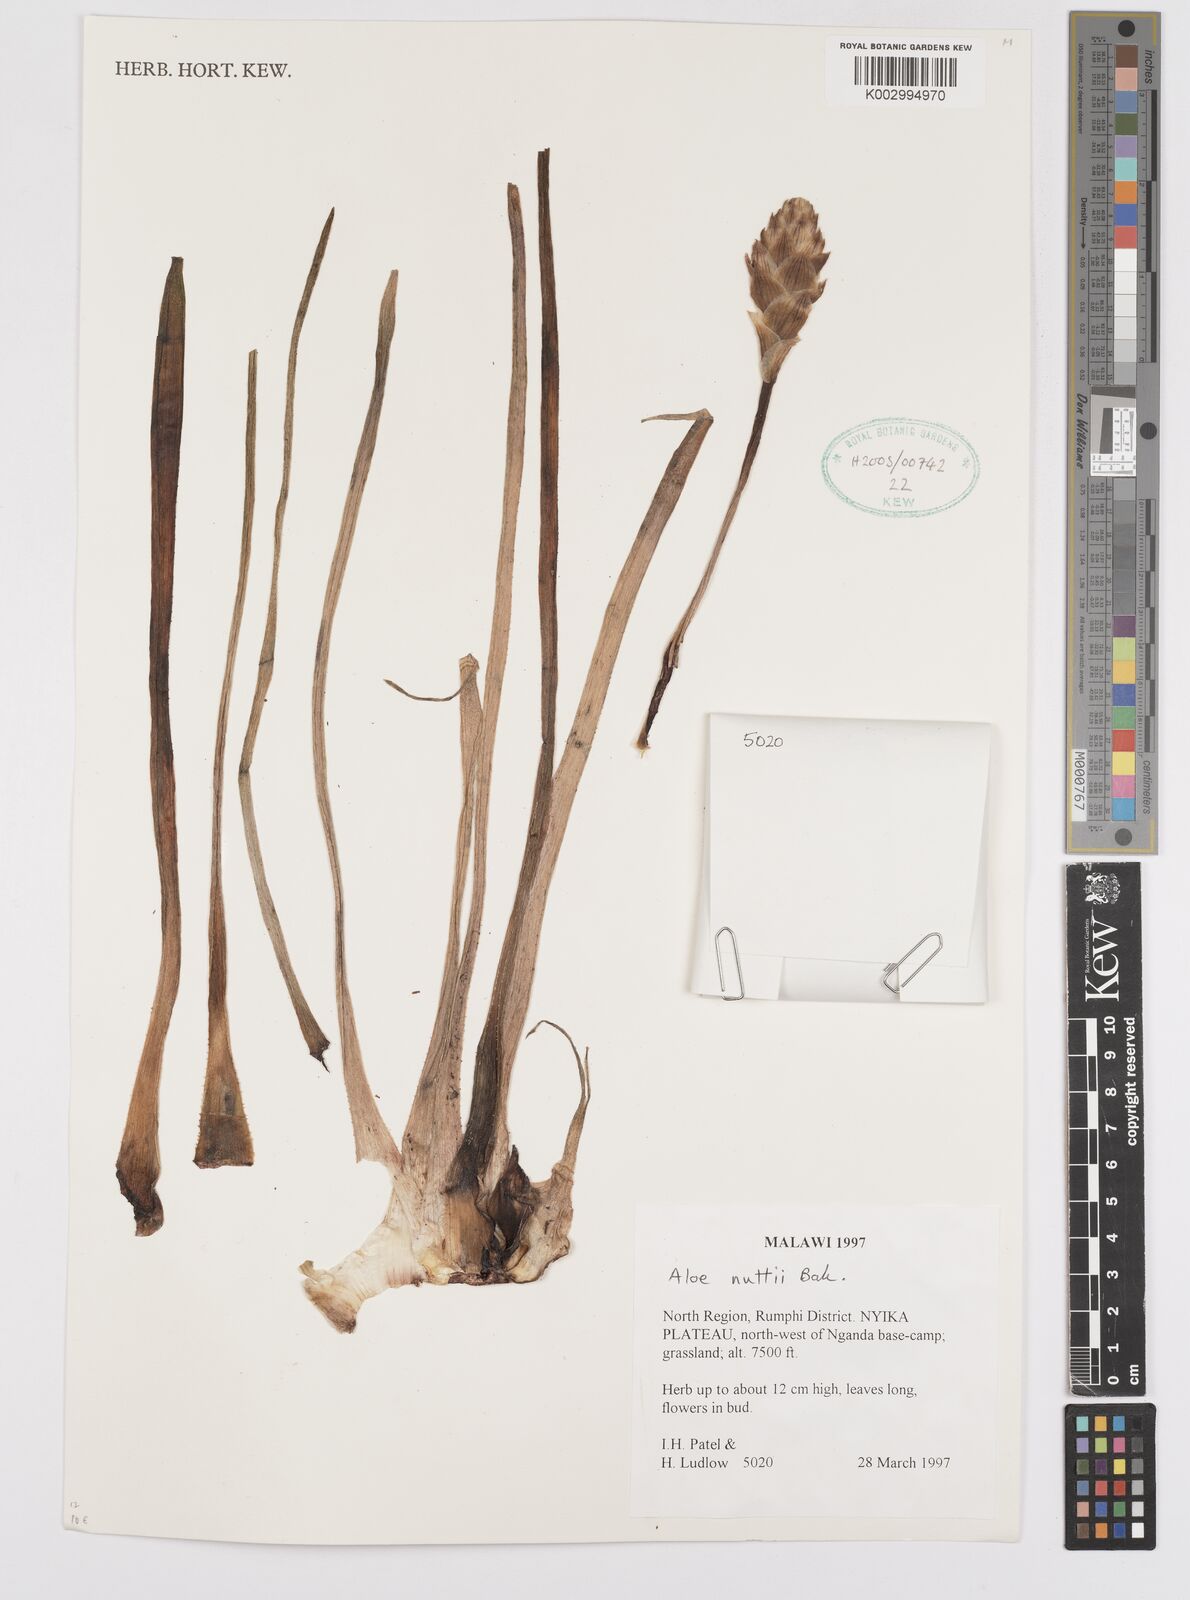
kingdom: Plantae
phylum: Tracheophyta
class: Liliopsida
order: Asparagales
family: Asphodelaceae
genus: Aloe
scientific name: Aloe nuttii
